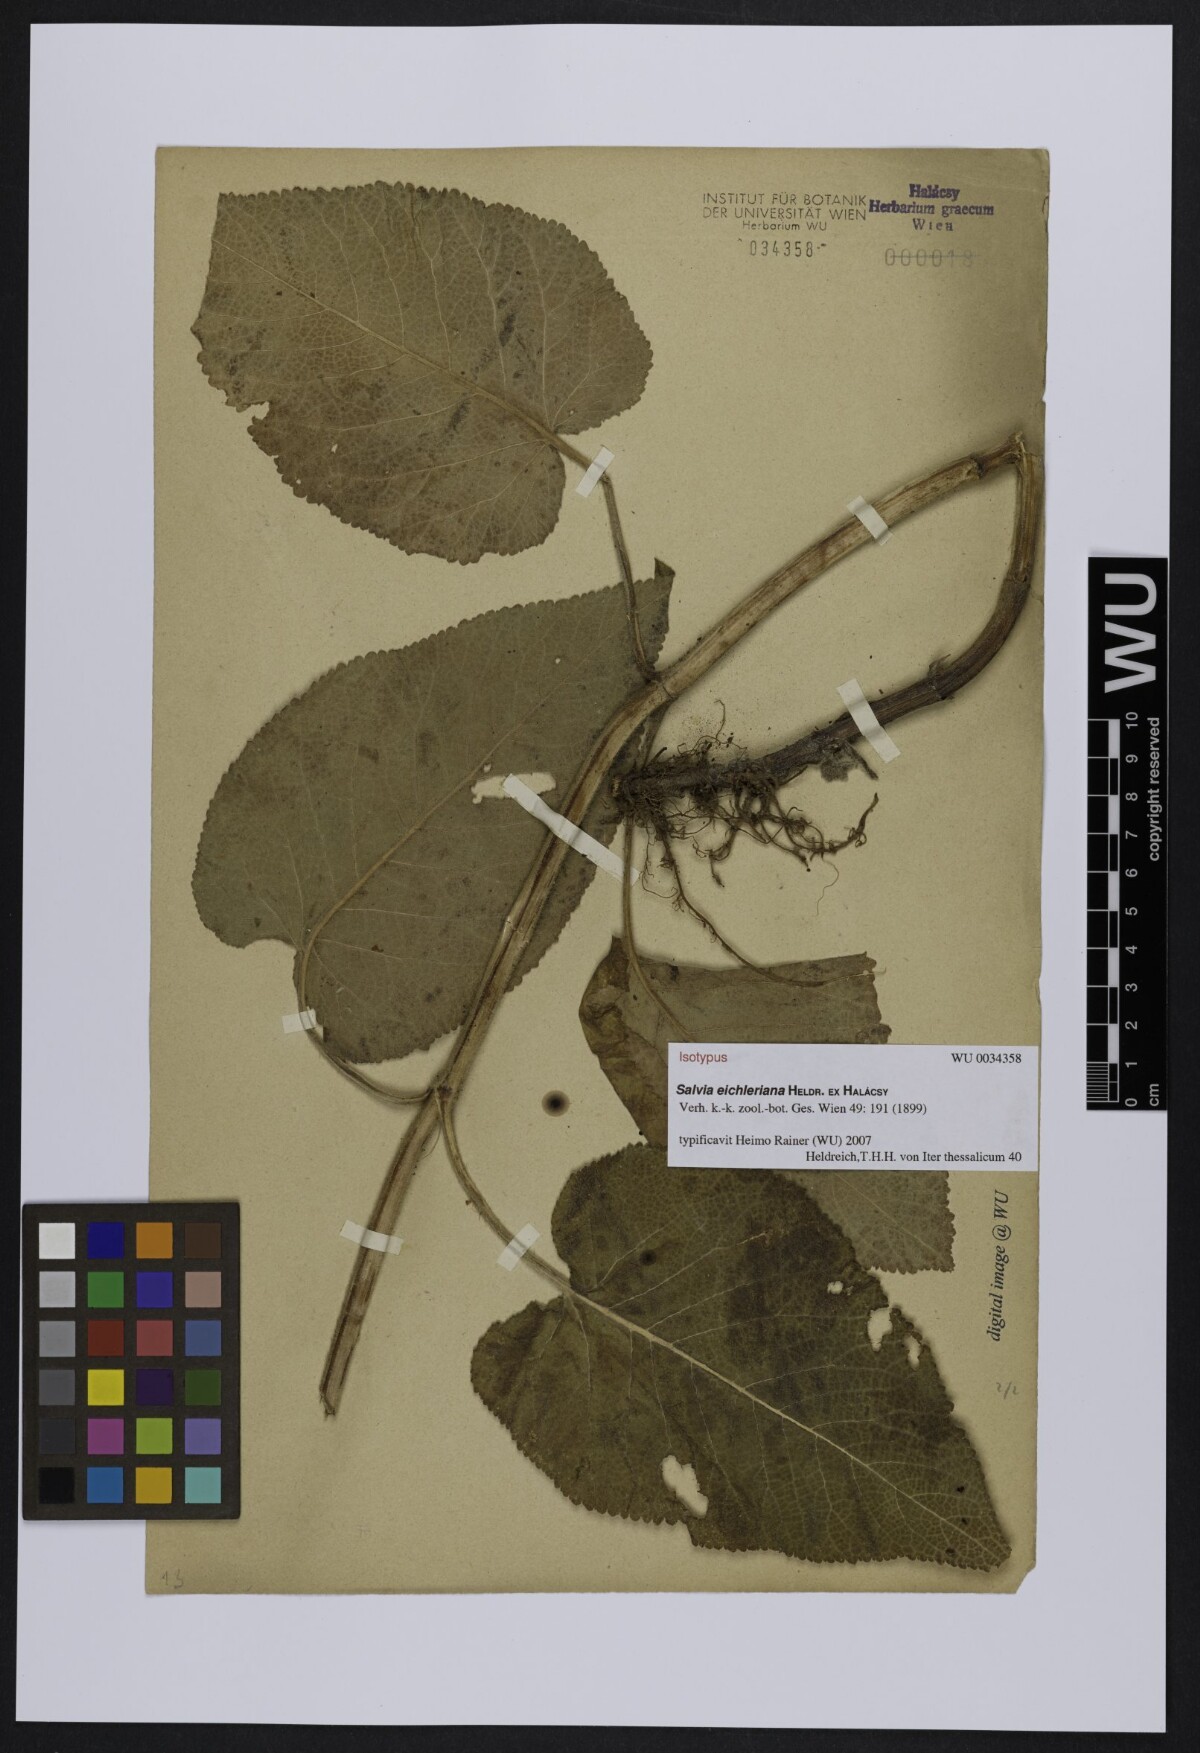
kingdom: Plantae
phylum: Tracheophyta
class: Magnoliopsida
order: Lamiales
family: Lamiaceae
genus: Salvia
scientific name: Salvia eichleriana
